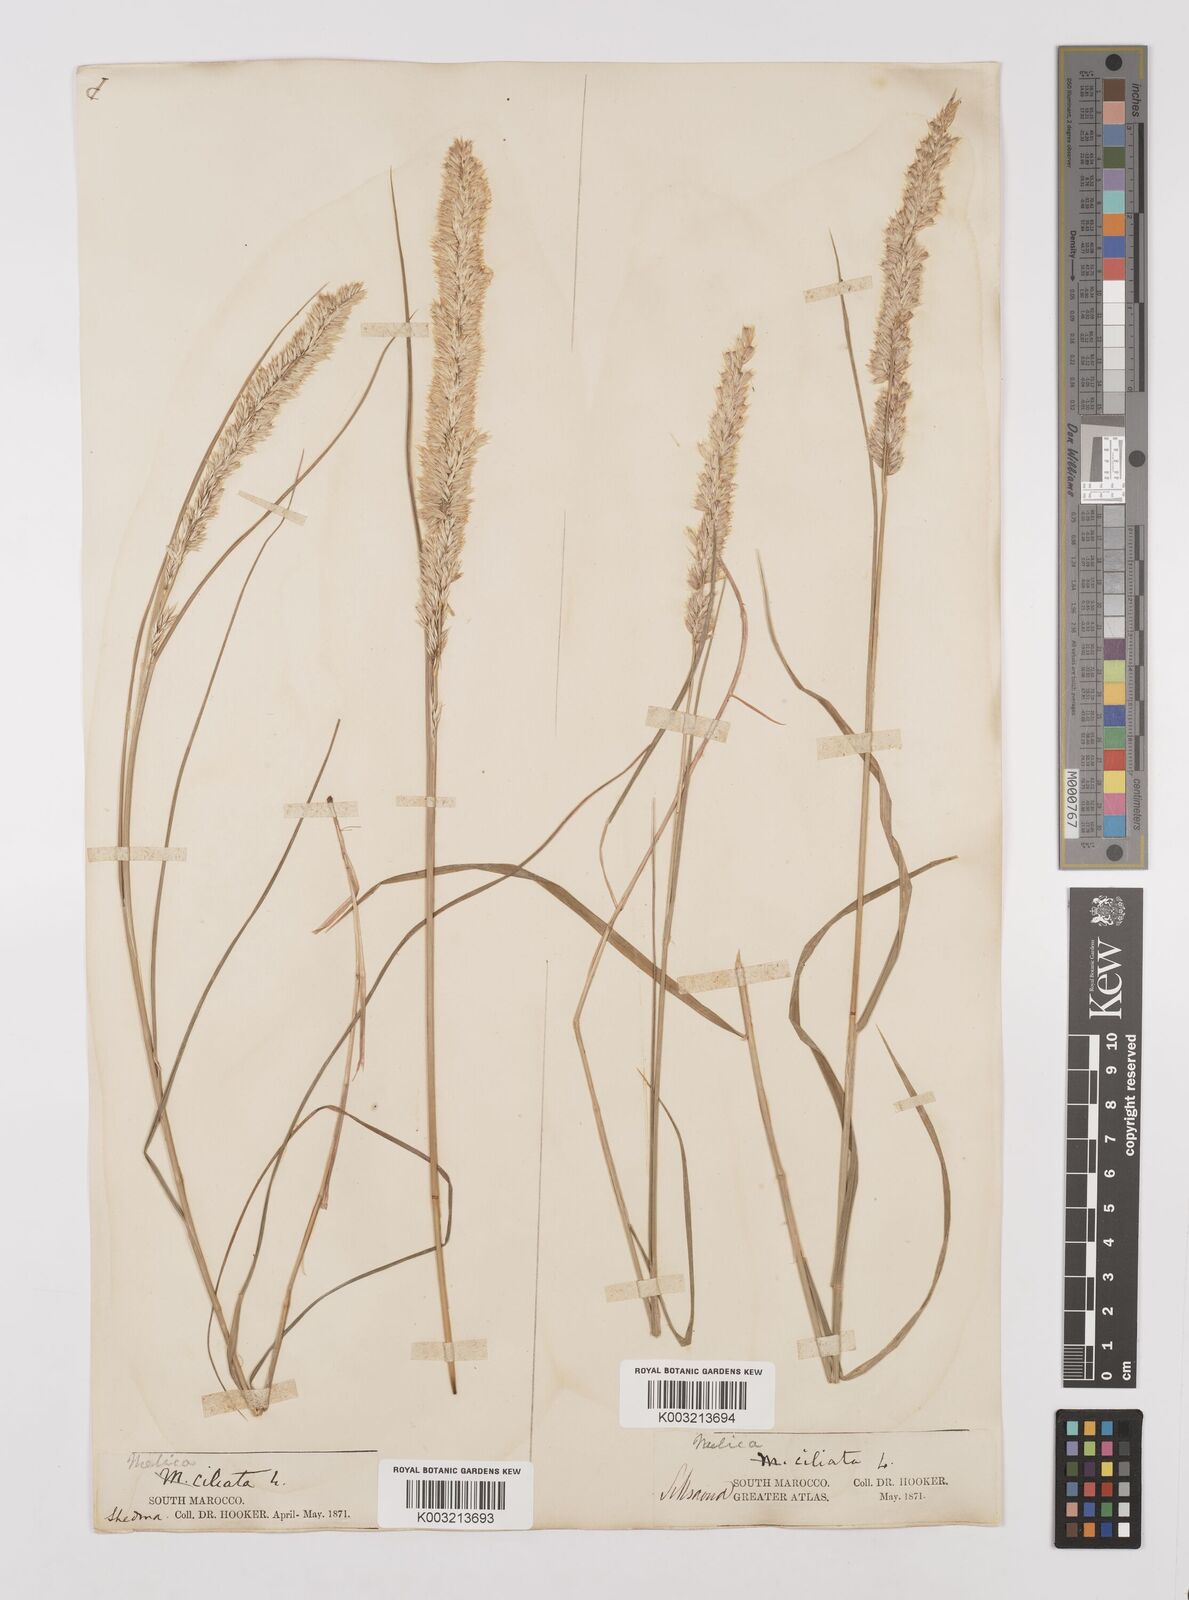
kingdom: Plantae
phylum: Tracheophyta
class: Liliopsida
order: Poales
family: Poaceae
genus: Melica
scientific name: Melica ciliata
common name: Hairy melicgrass
